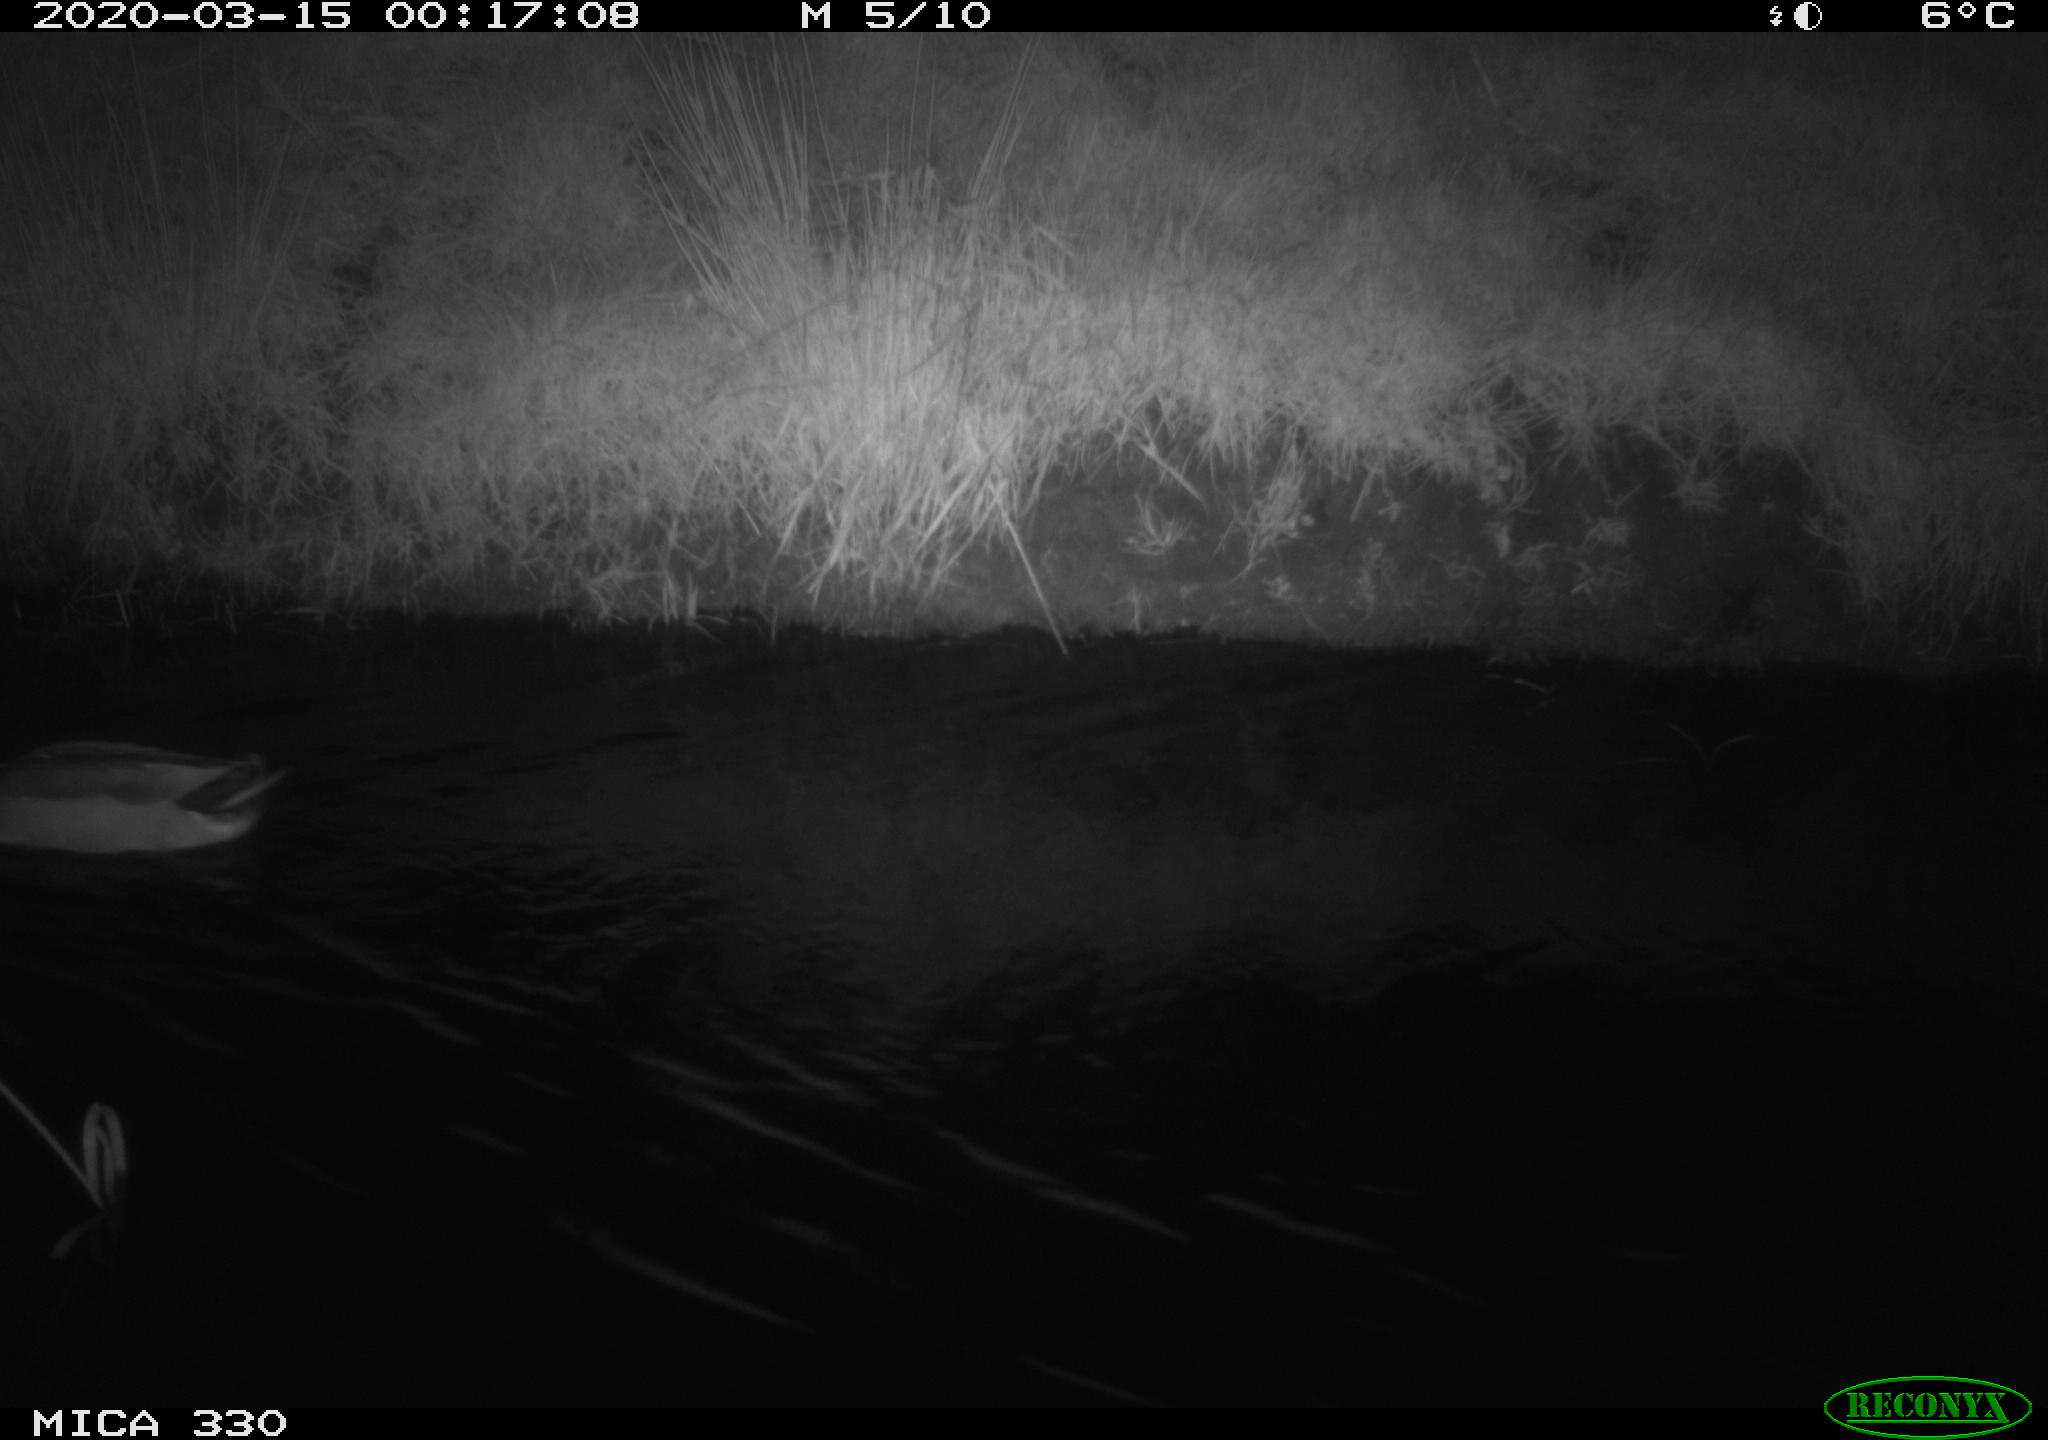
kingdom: Animalia
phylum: Chordata
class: Aves
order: Anseriformes
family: Anatidae
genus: Anas
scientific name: Anas platyrhynchos
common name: Mallard
